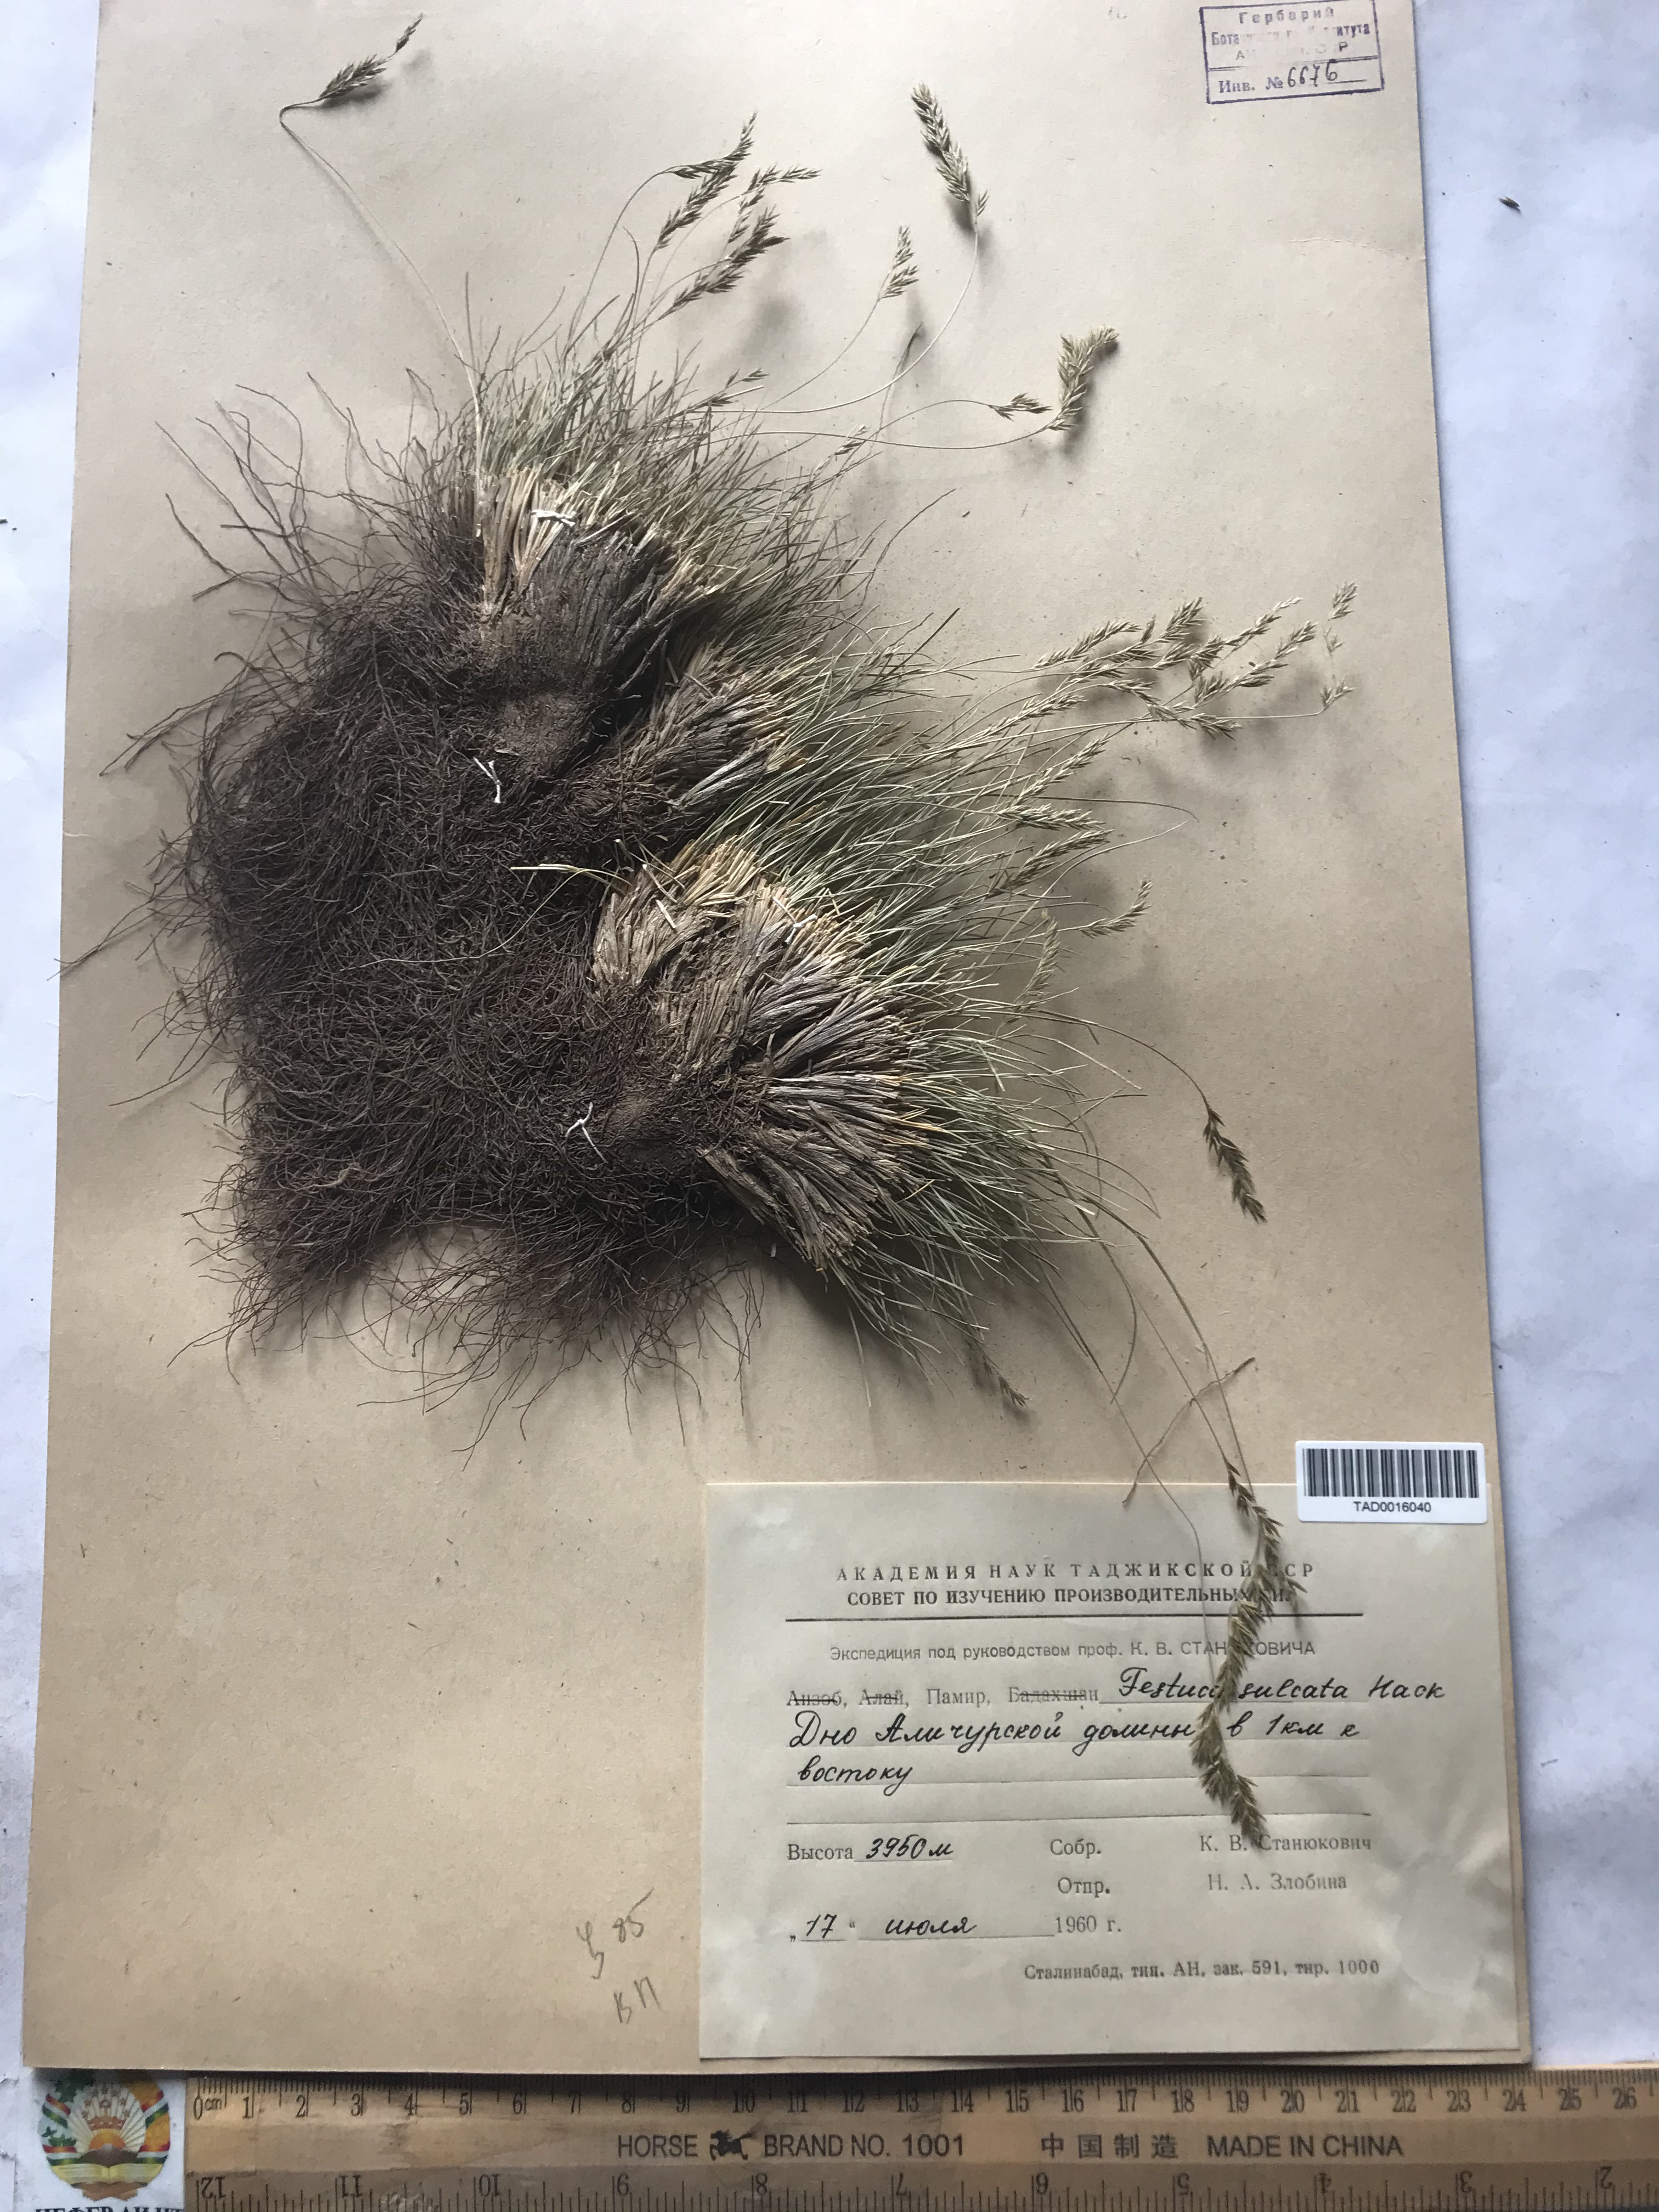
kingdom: Plantae
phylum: Tracheophyta
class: Liliopsida
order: Poales
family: Poaceae
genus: Festuca
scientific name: Festuca sulcata
